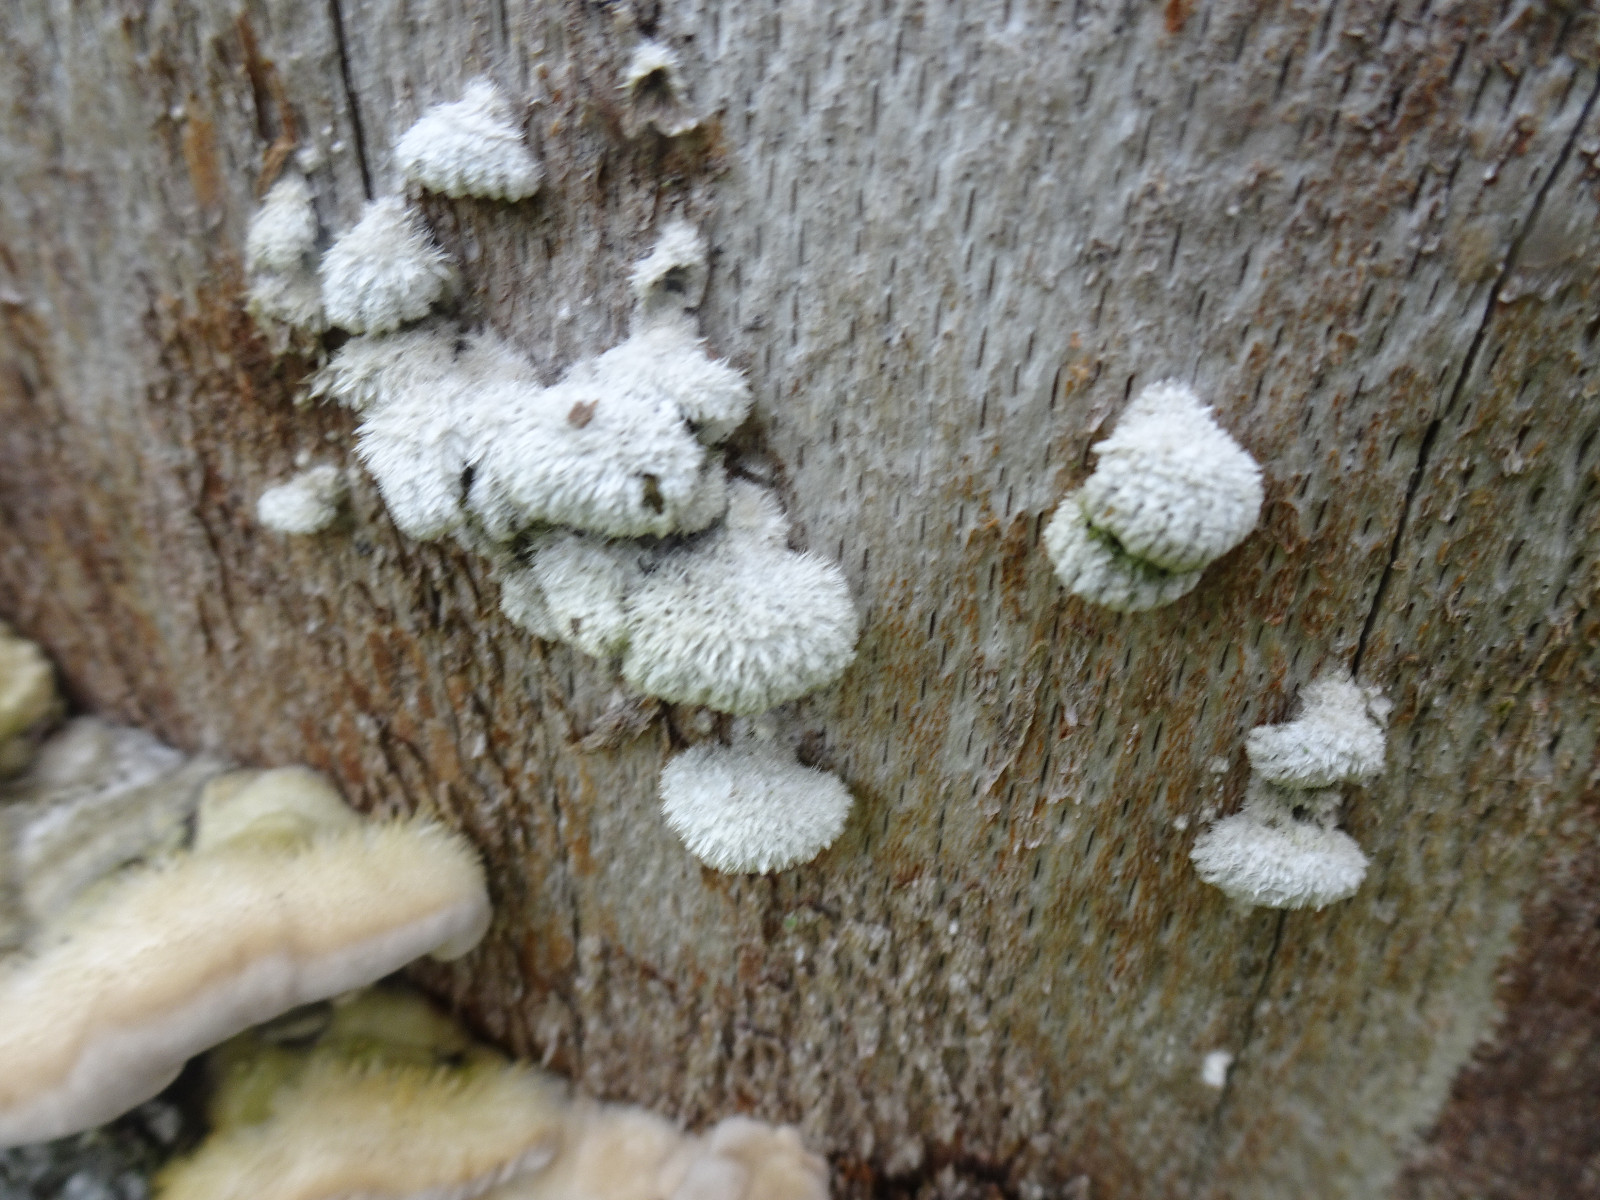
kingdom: Fungi
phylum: Basidiomycota
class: Agaricomycetes
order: Agaricales
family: Schizophyllaceae
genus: Schizophyllum
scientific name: Schizophyllum commune
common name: kløvblad
